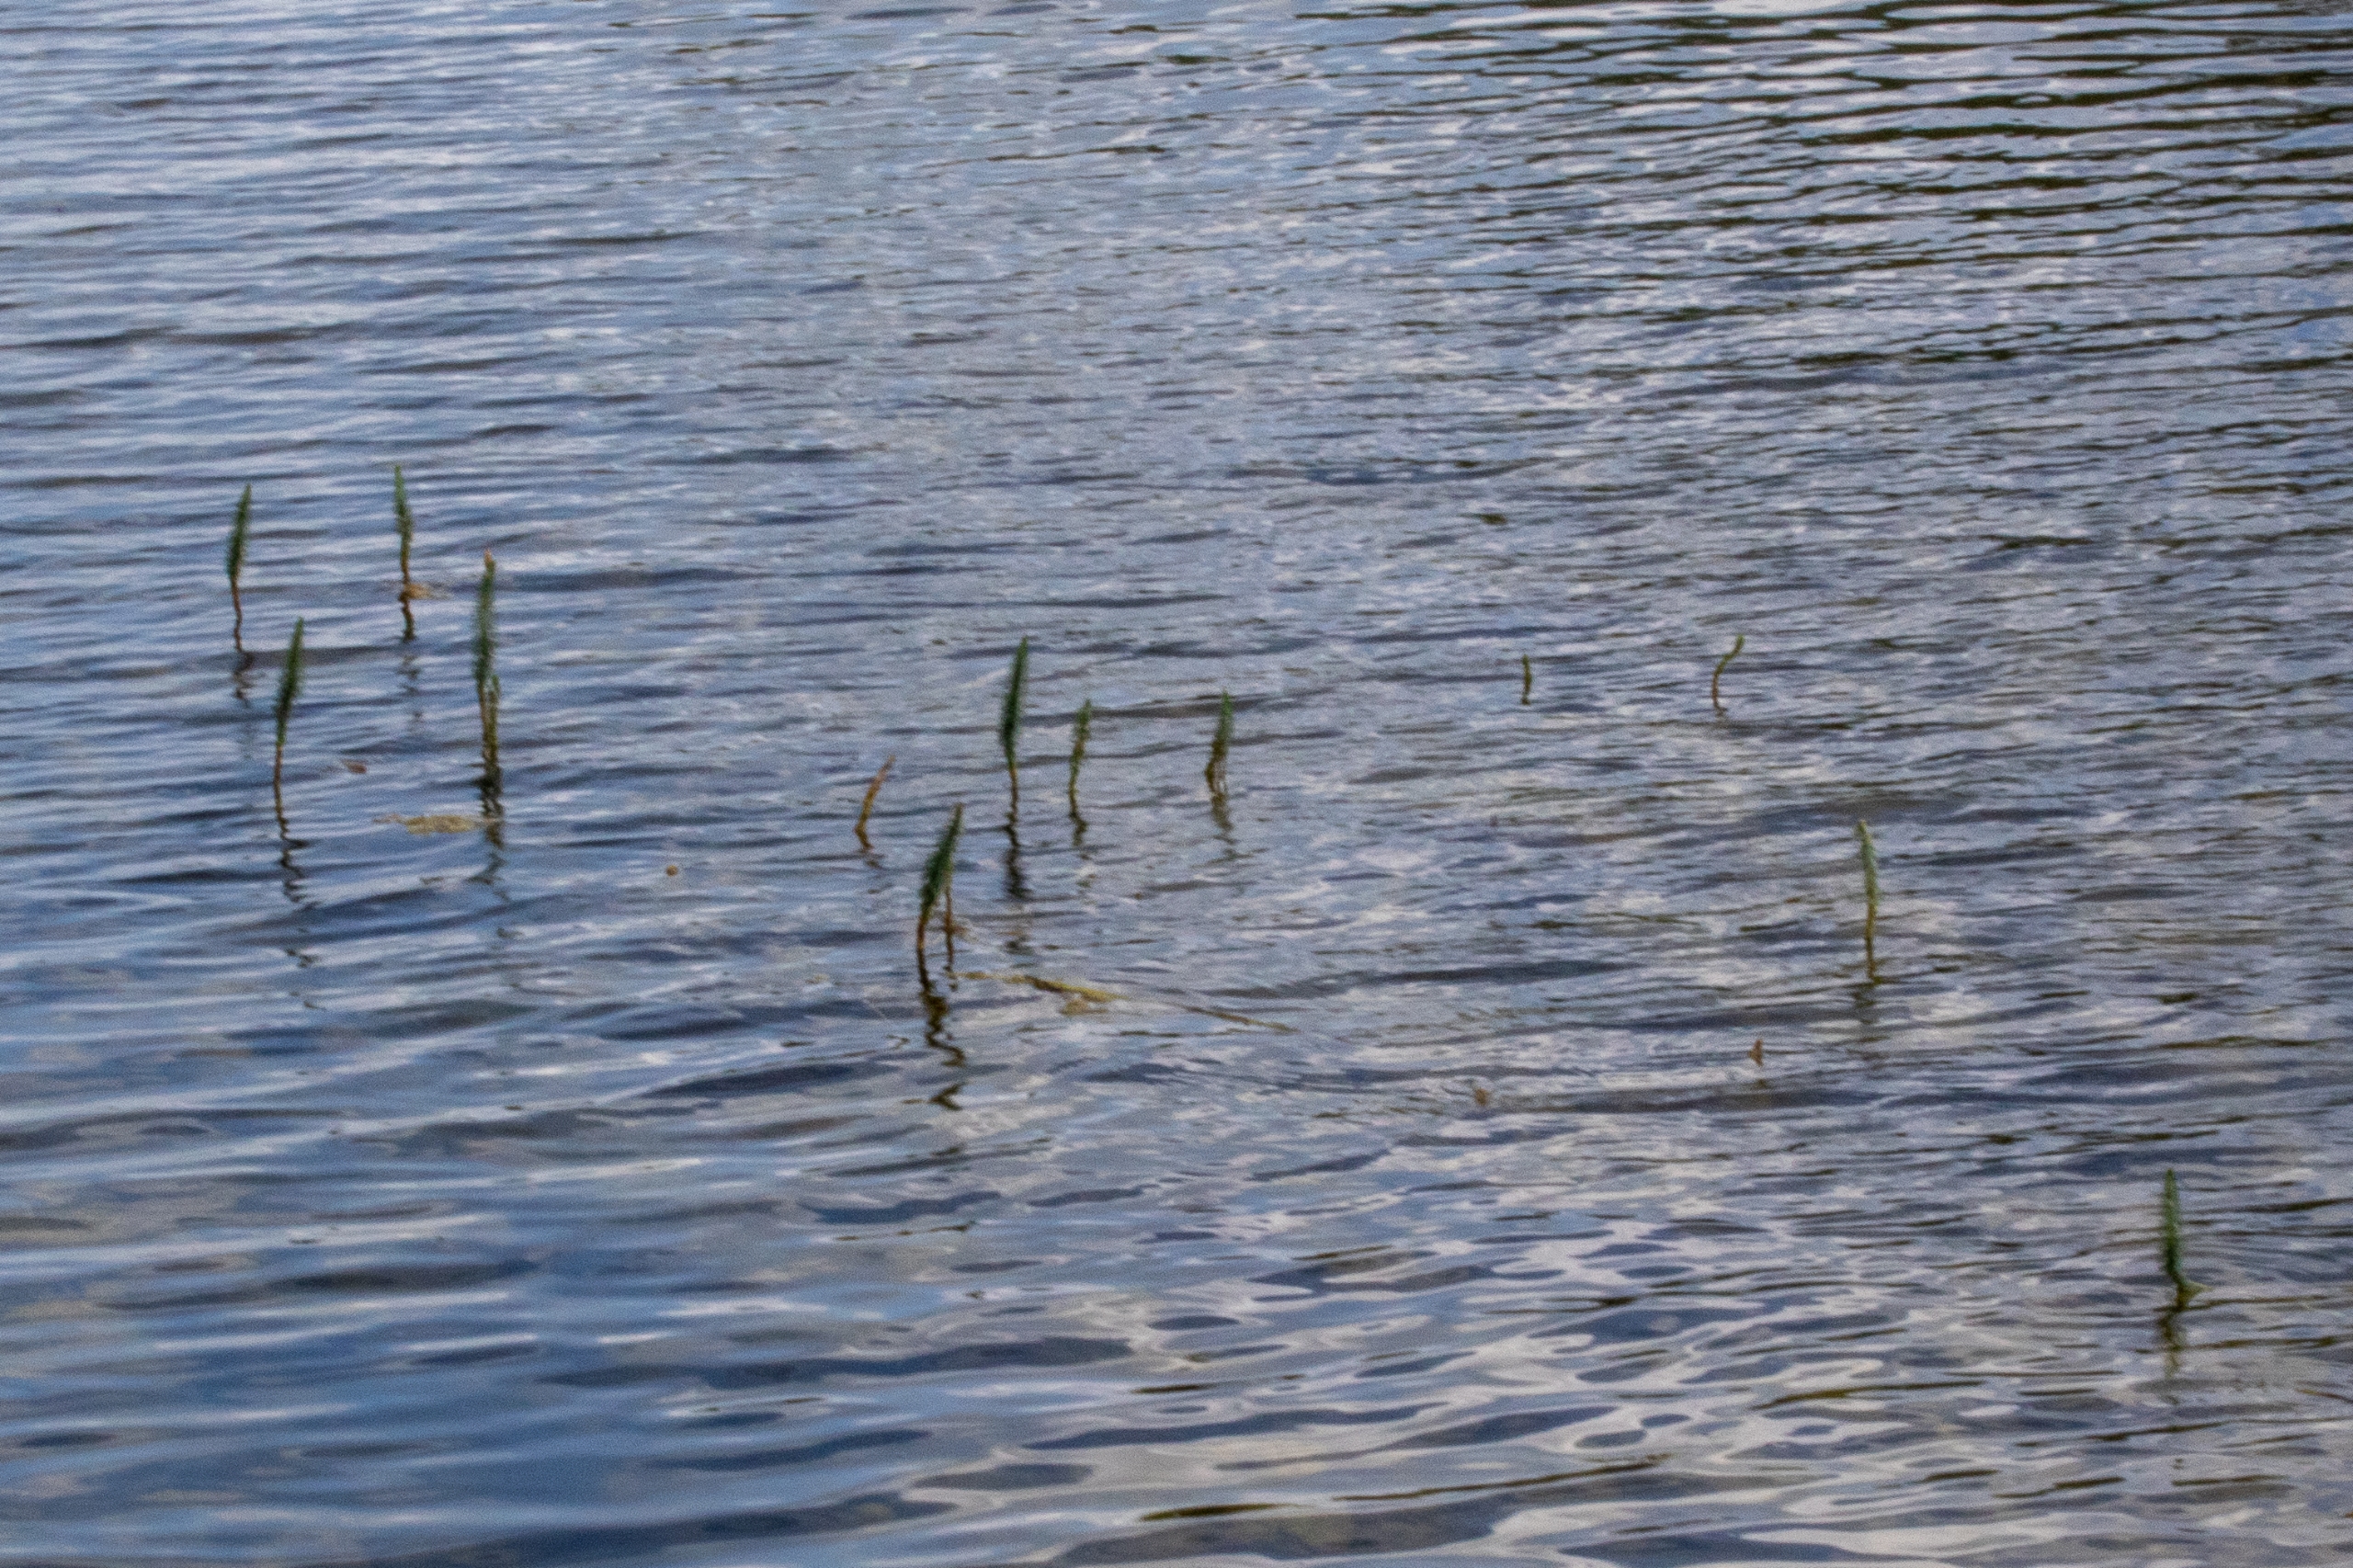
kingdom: Plantae
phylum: Tracheophyta
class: Magnoliopsida
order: Lamiales
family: Plantaginaceae
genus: Hippuris
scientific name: Hippuris vulgaris
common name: Vandspir
